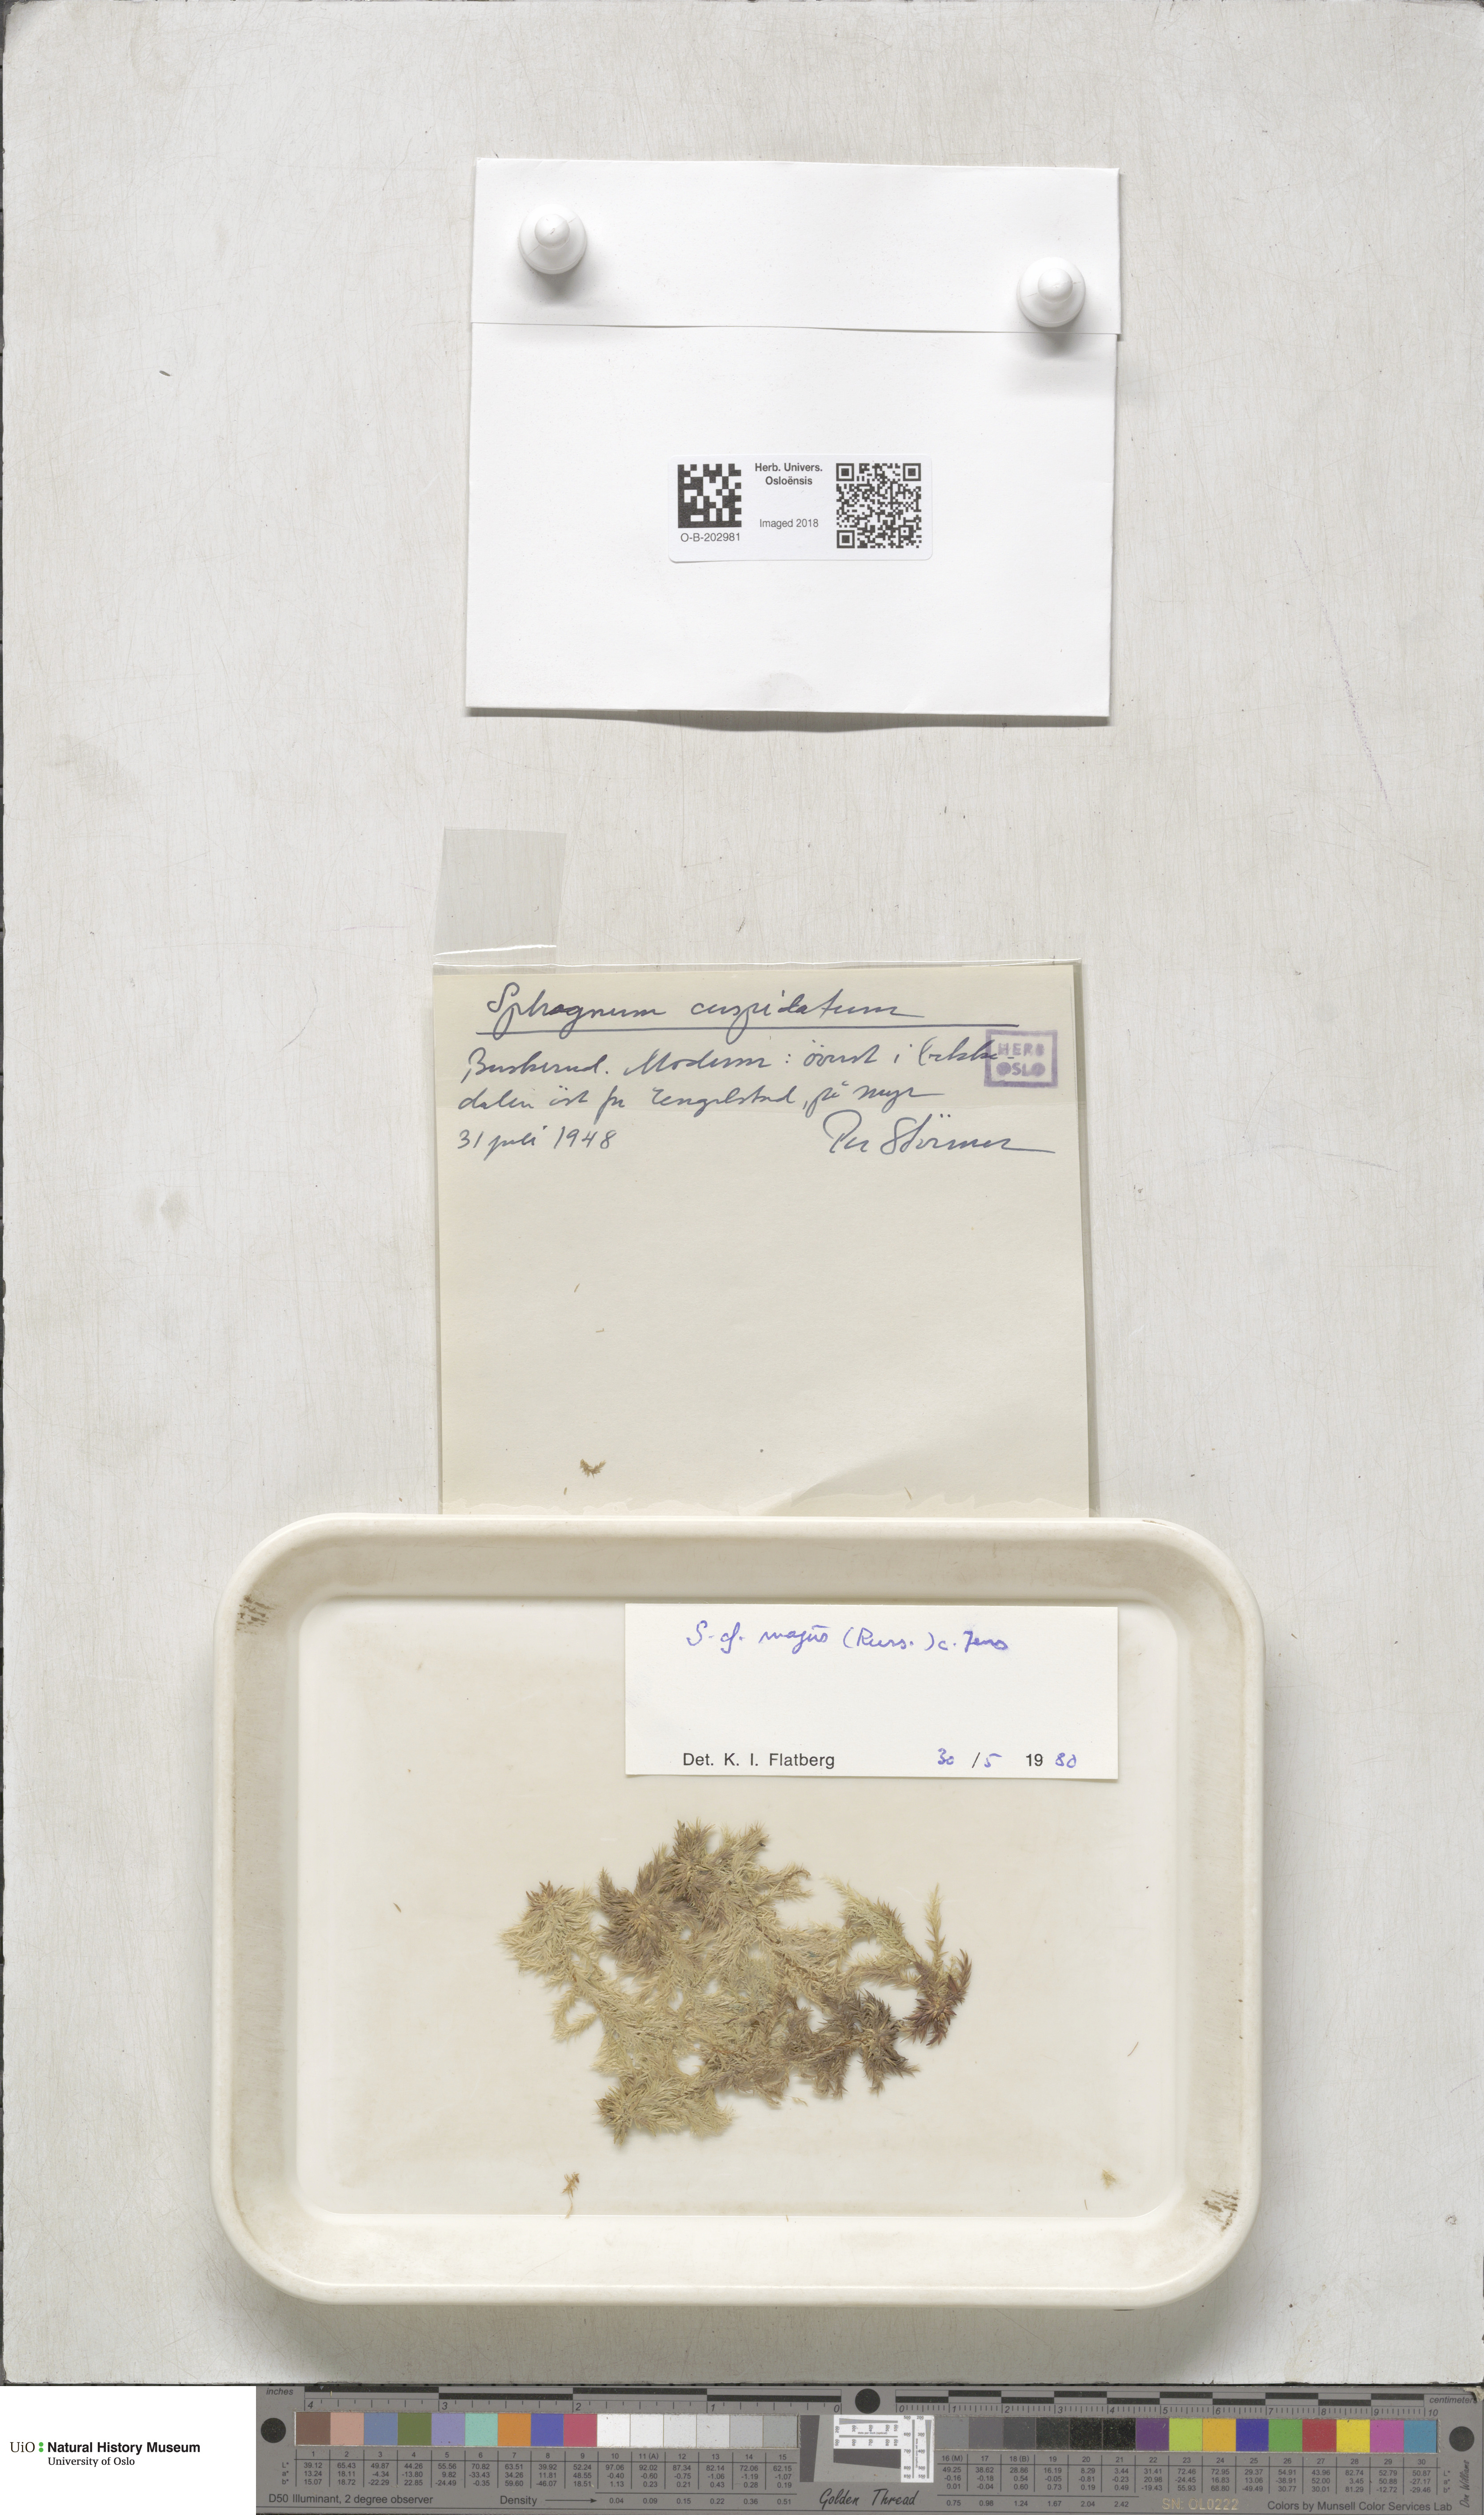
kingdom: Plantae
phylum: Bryophyta
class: Sphagnopsida
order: Sphagnales
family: Sphagnaceae
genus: Sphagnum
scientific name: Sphagnum majus
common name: Olive bog-moss
